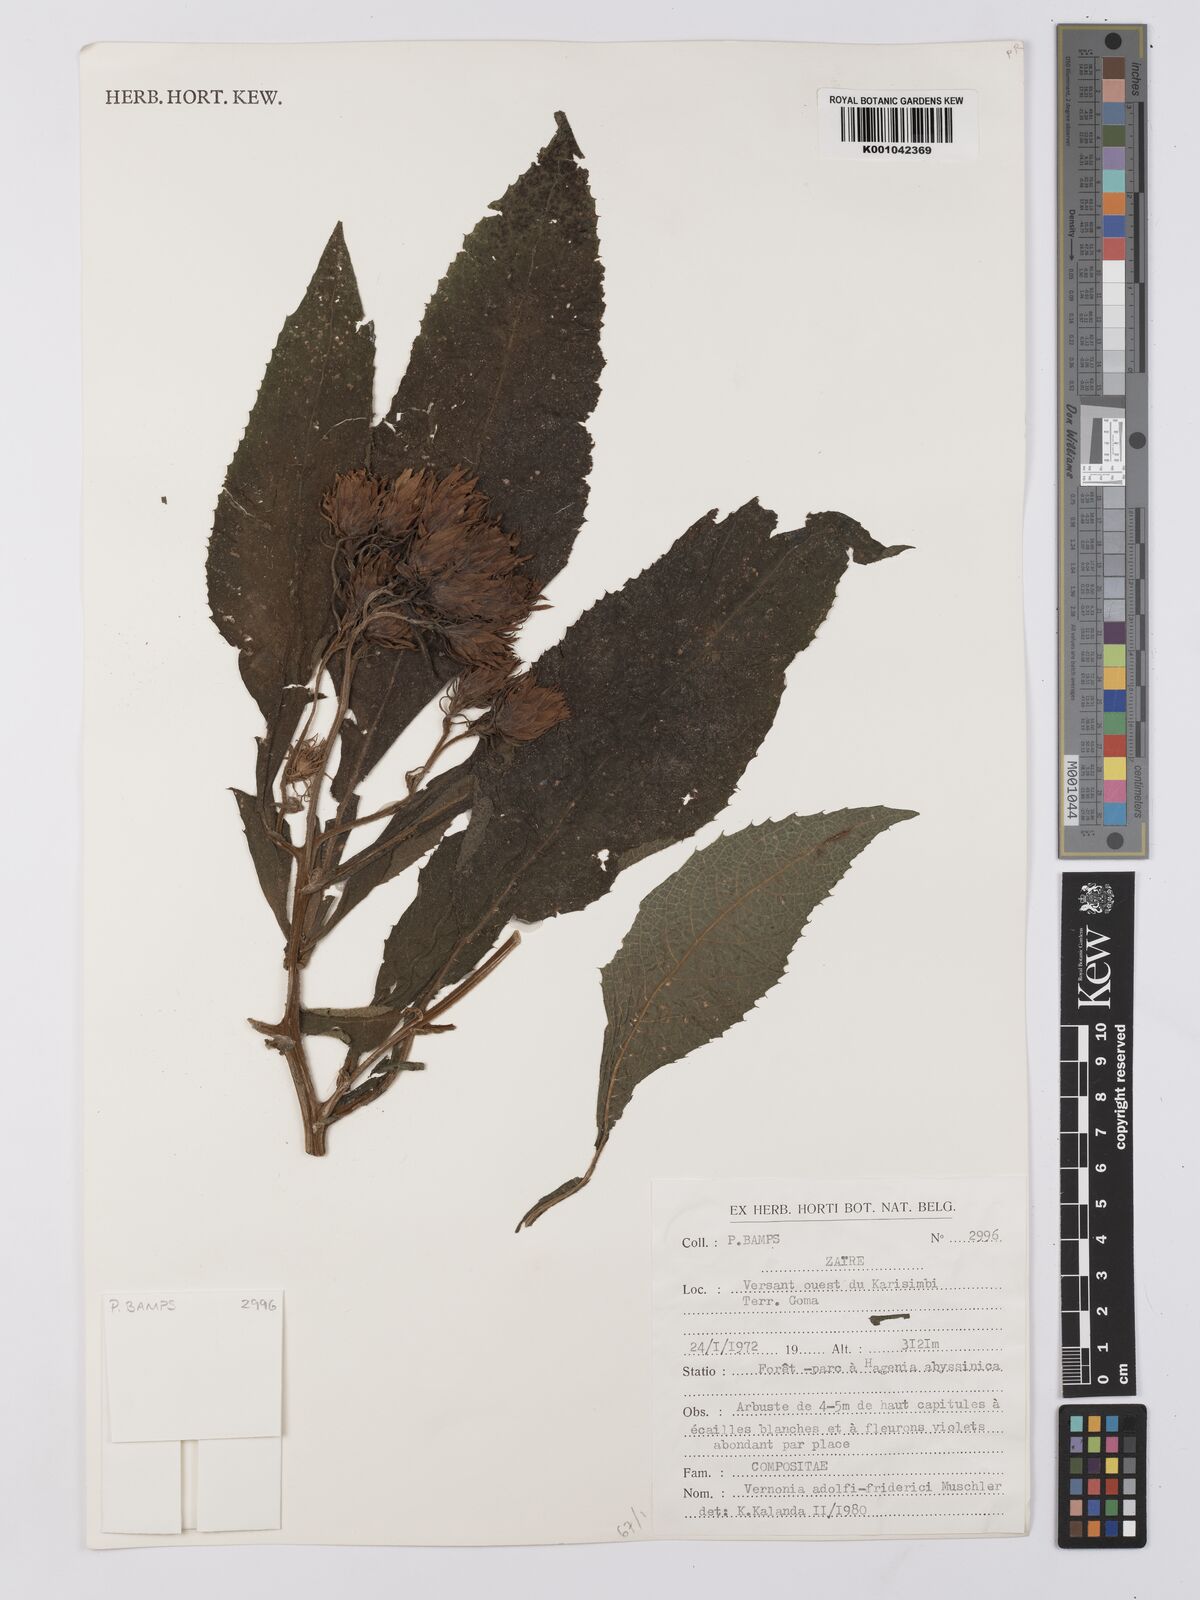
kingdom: Plantae
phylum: Tracheophyta
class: Magnoliopsida
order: Asterales
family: Asteraceae
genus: Baccharoides
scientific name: Baccharoides calvoana
